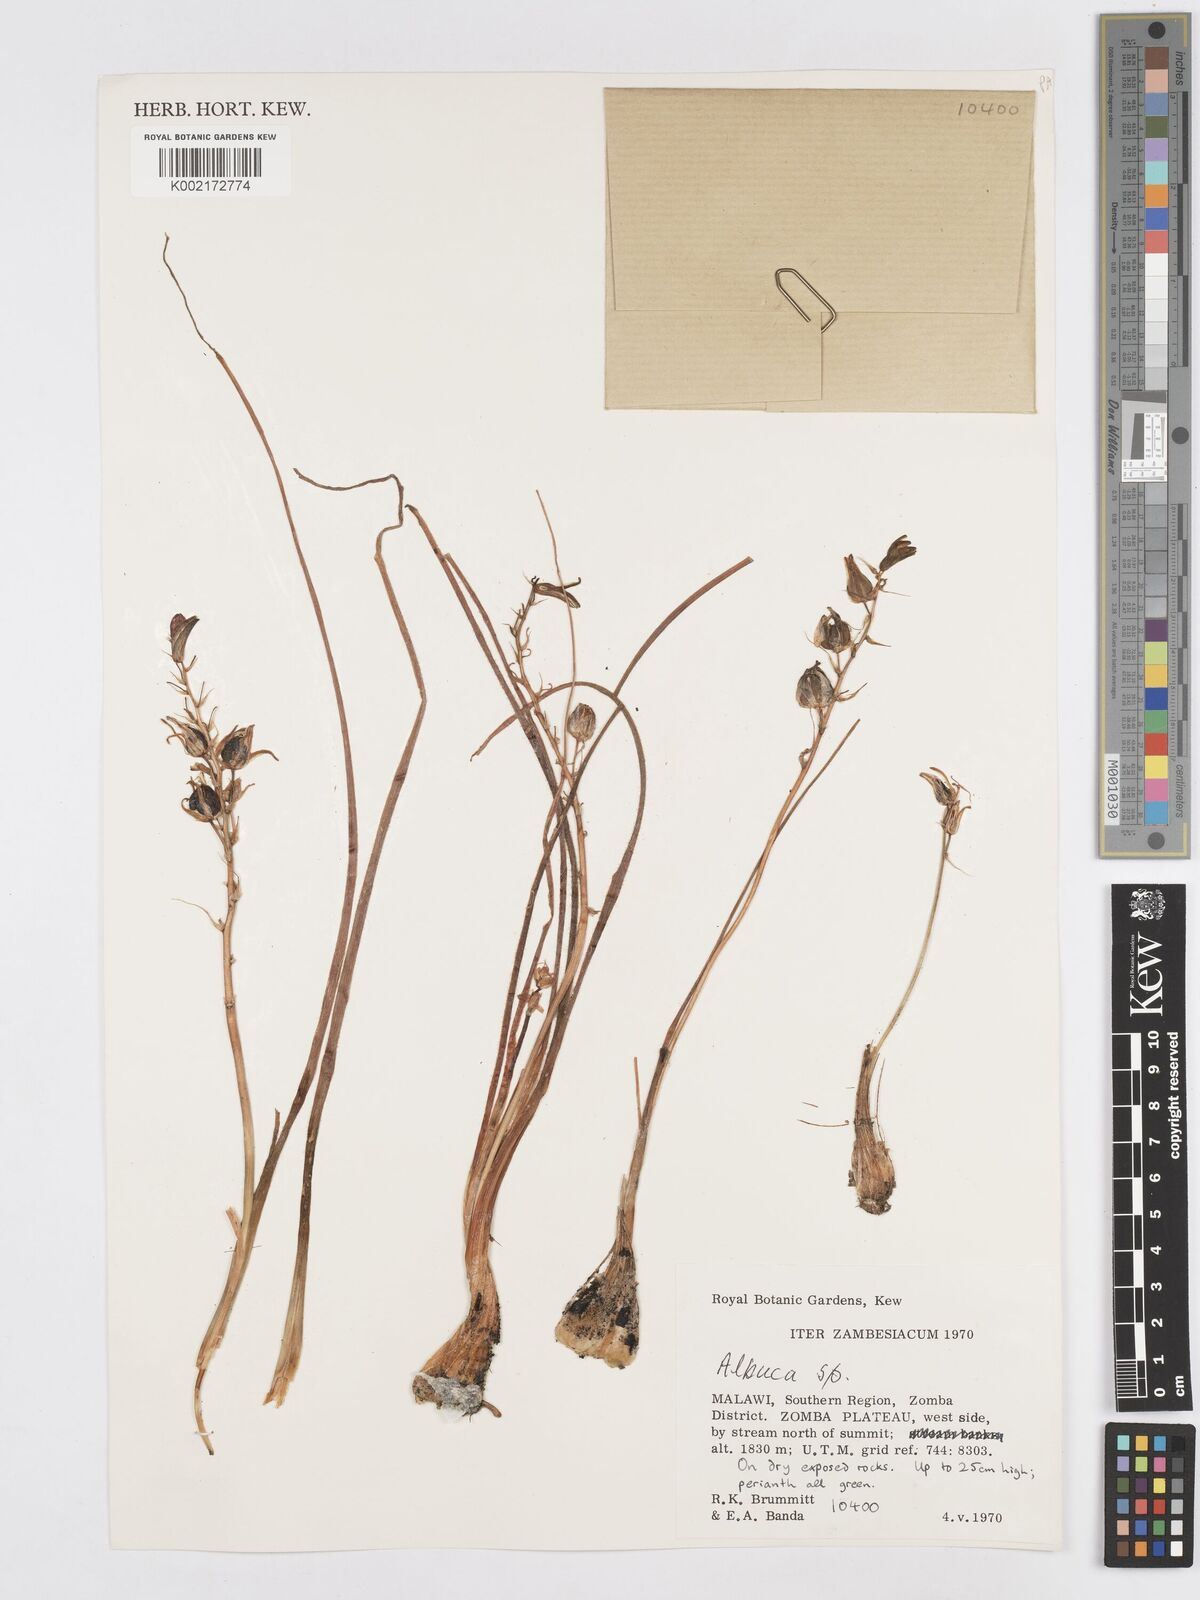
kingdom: Plantae
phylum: Tracheophyta
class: Liliopsida
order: Asparagales
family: Asparagaceae
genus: Albuca
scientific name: Albuca
